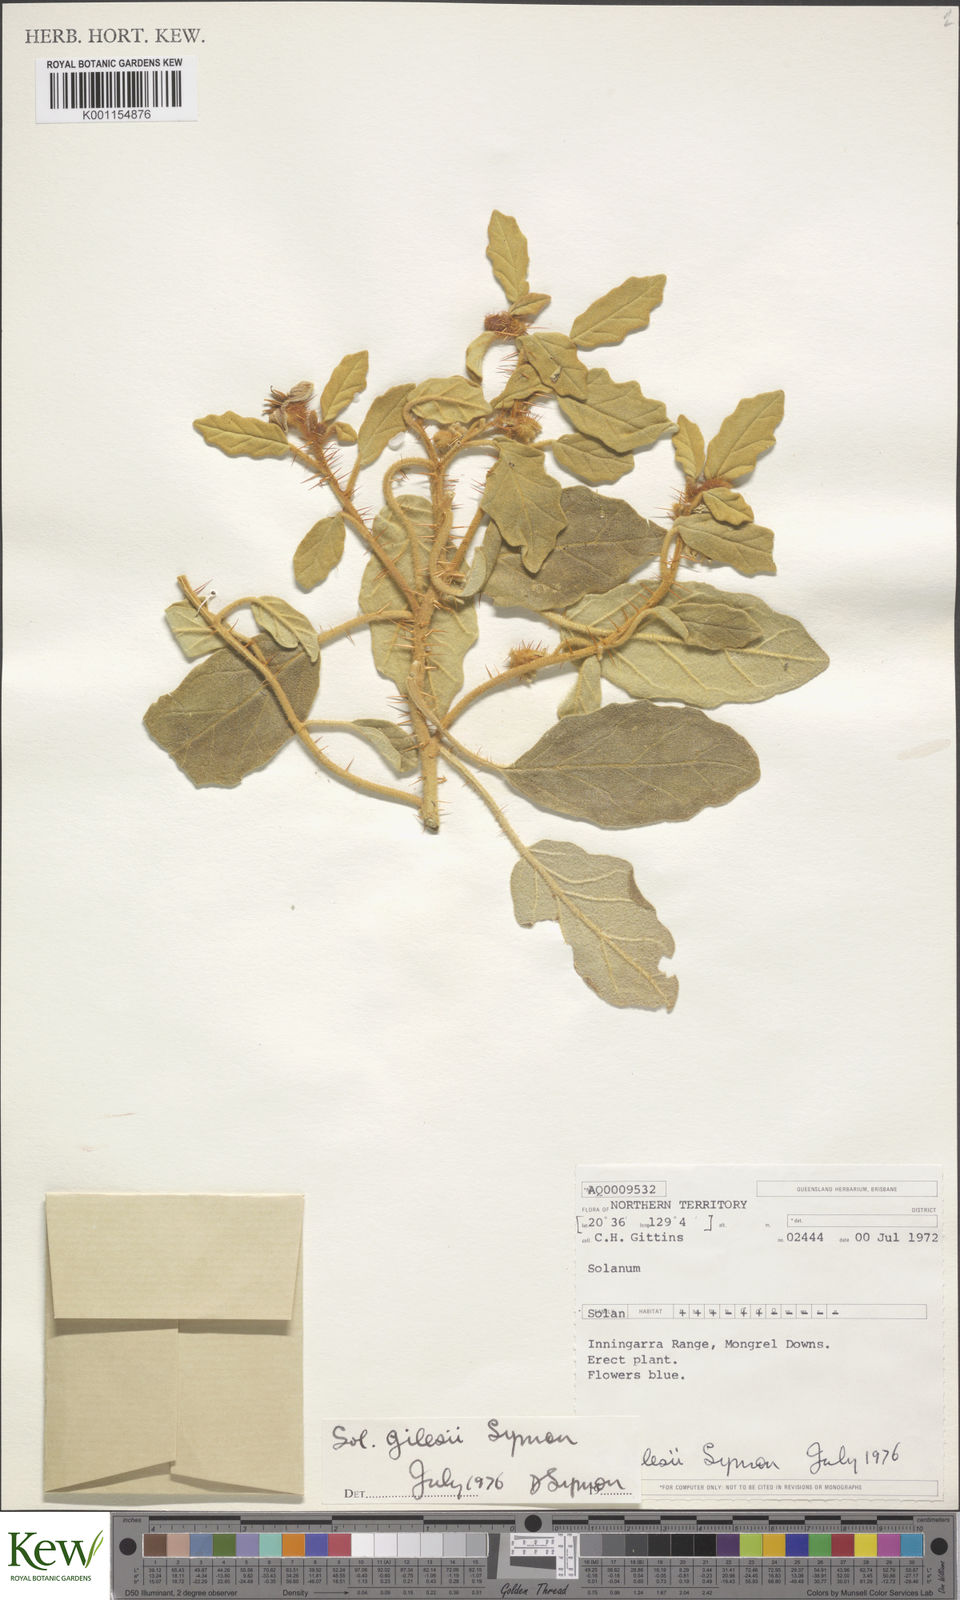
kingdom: Plantae
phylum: Tracheophyta
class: Magnoliopsida
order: Solanales
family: Solanaceae
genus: Solanum
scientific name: Solanum gilesii
